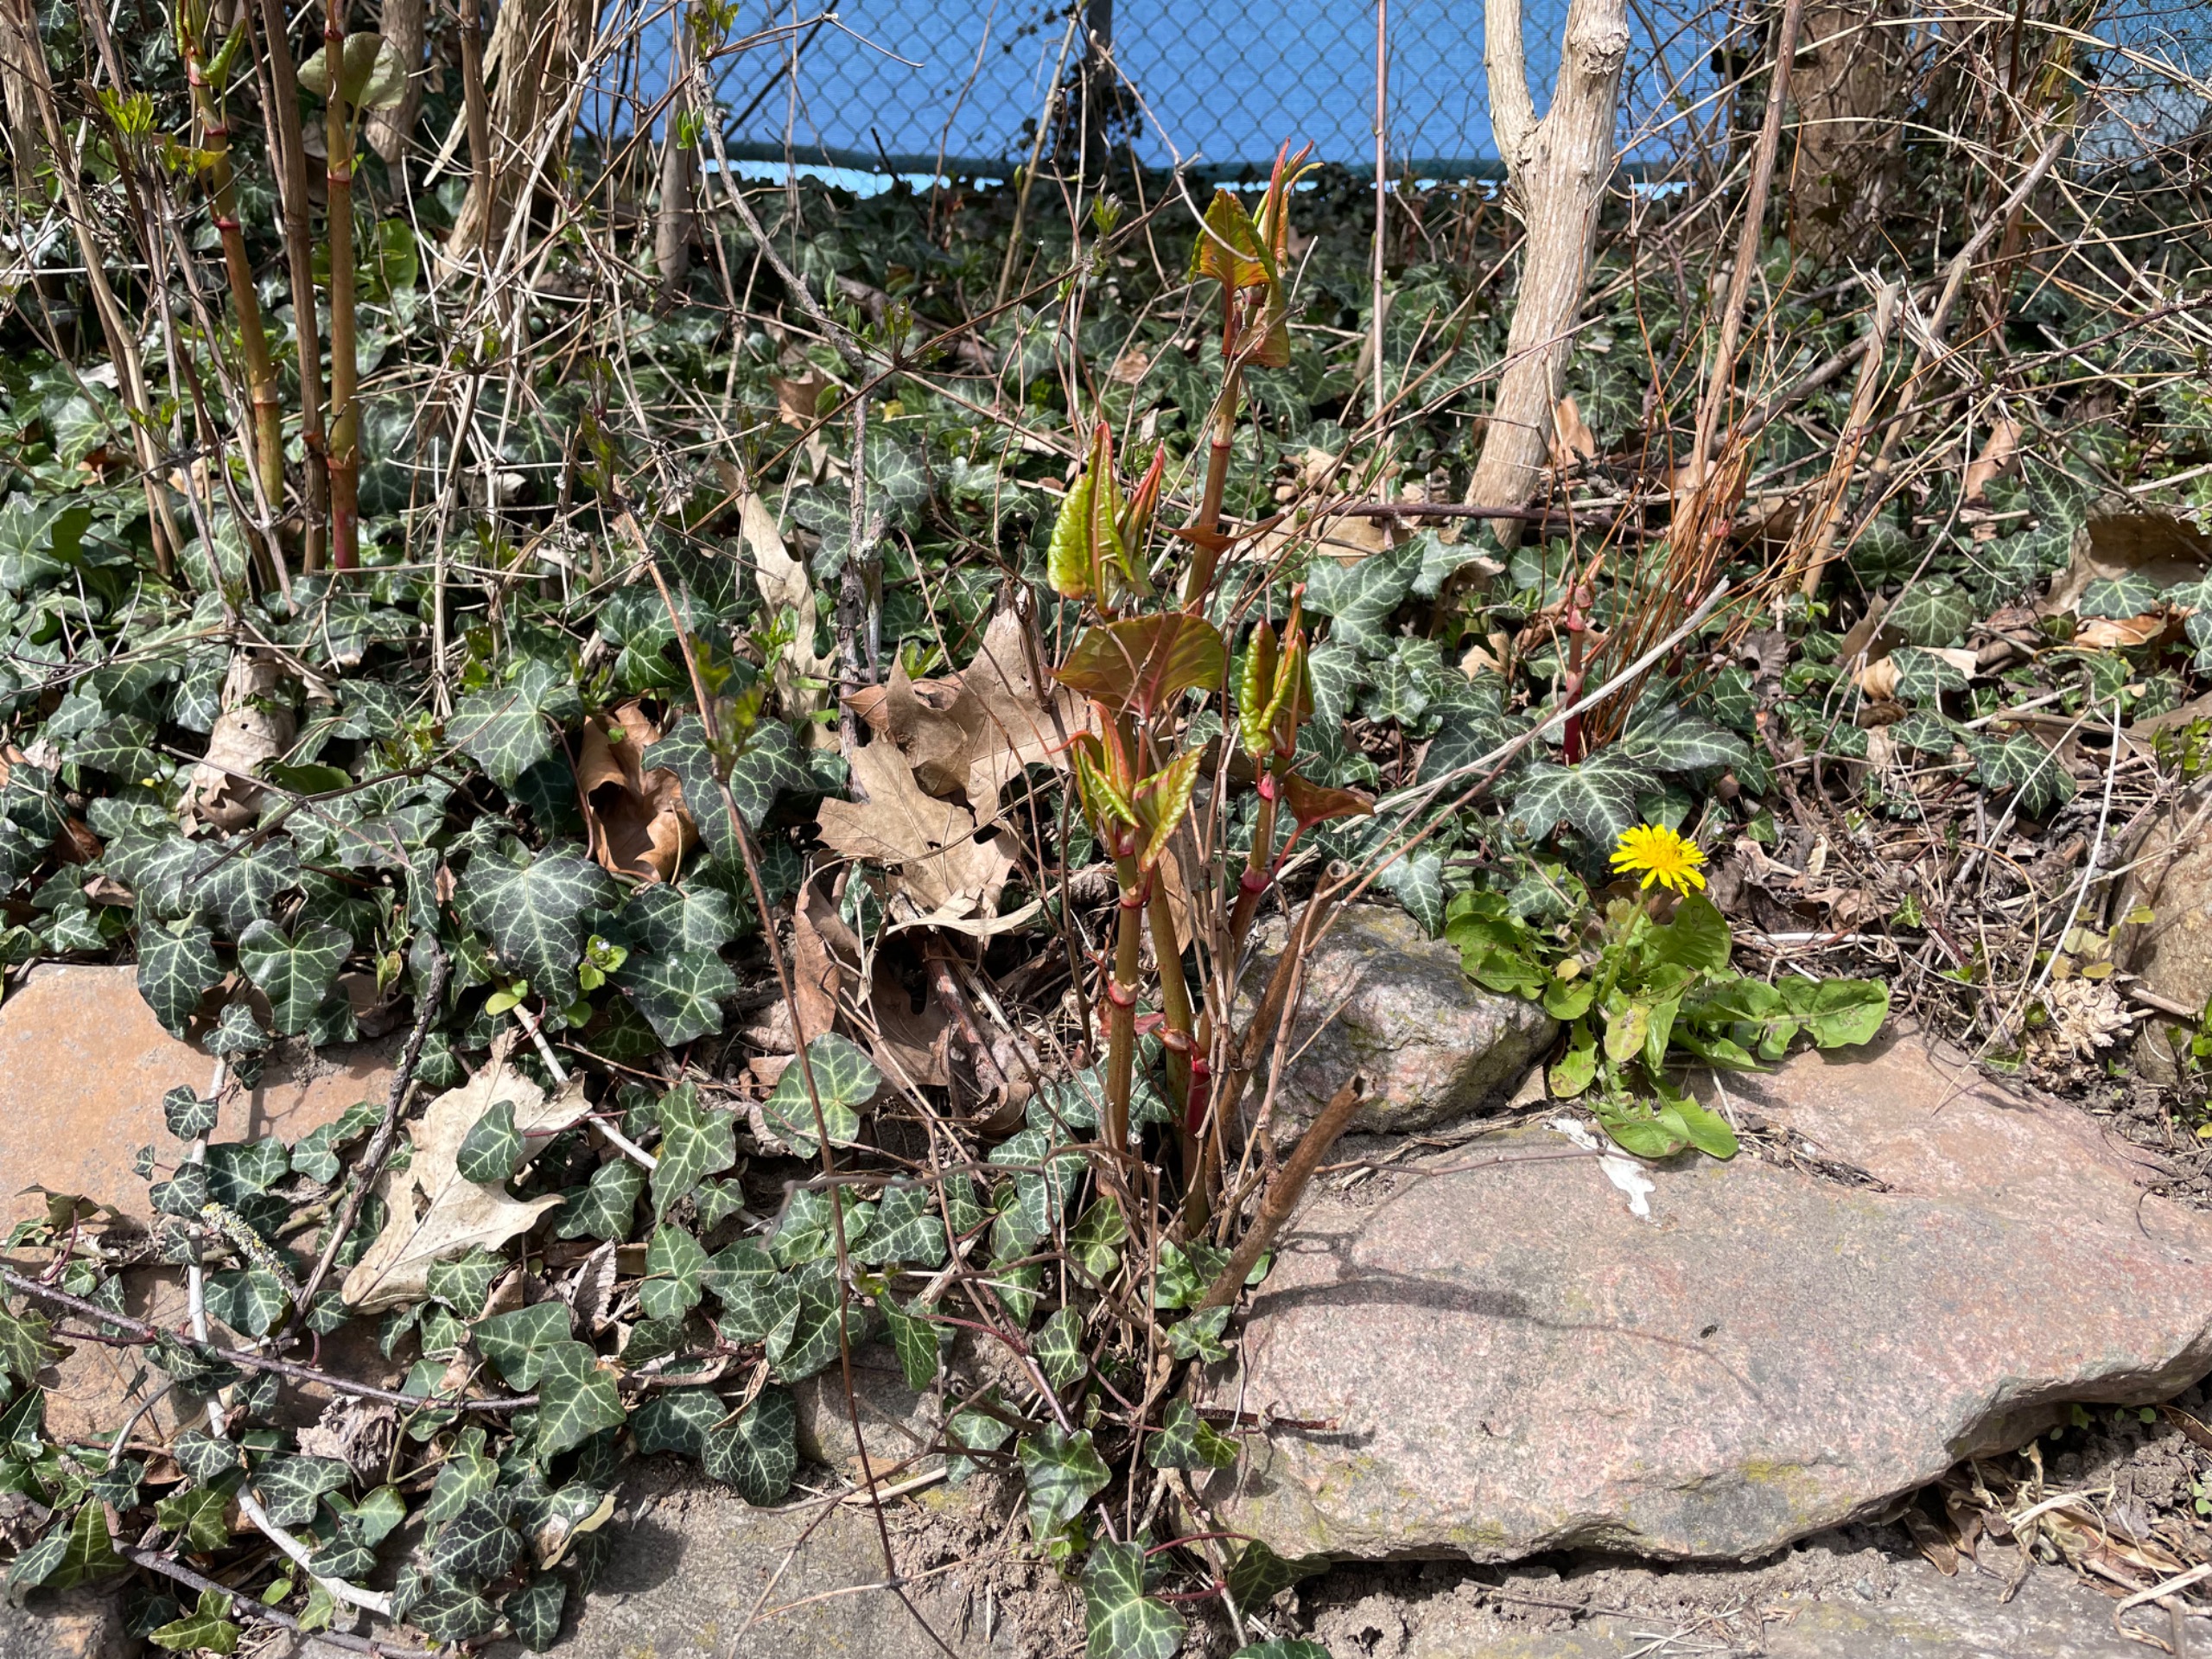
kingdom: Plantae
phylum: Tracheophyta
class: Magnoliopsida
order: Caryophyllales
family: Polygonaceae
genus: Reynoutria
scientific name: Reynoutria
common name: Pileurt (Reynoutria-slægten)
